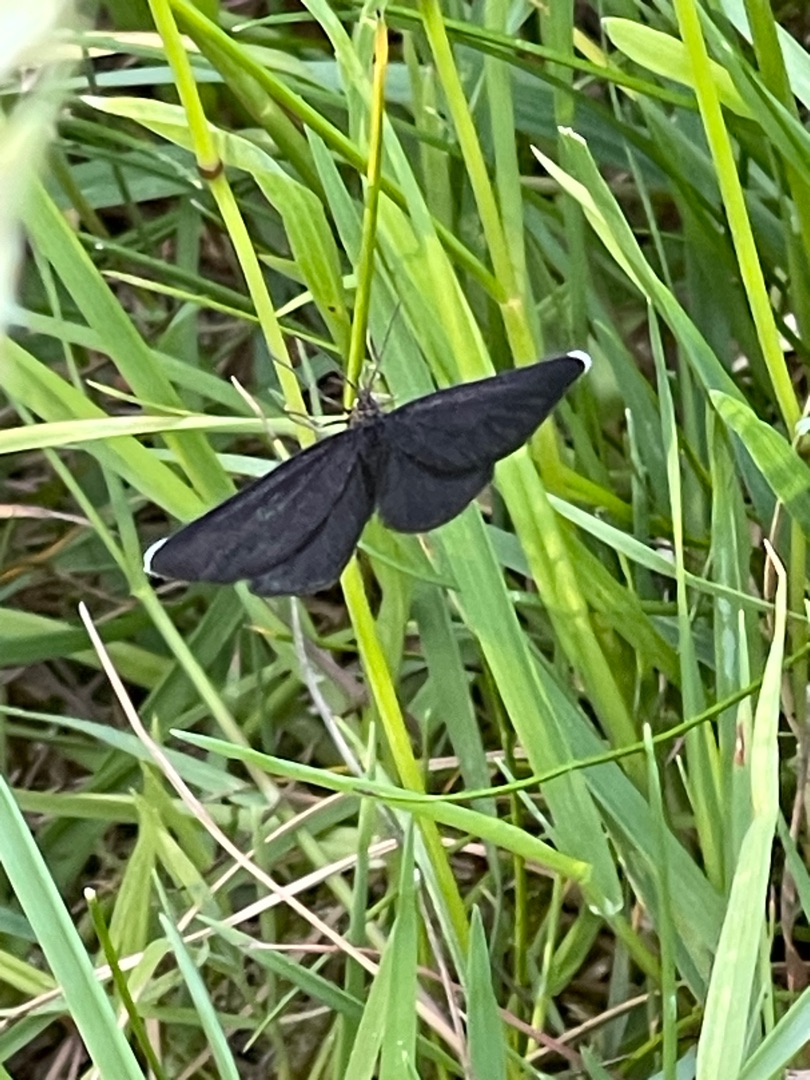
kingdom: Animalia
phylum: Arthropoda
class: Insecta
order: Lepidoptera
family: Geometridae
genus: Odezia
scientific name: Odezia atrata
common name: Sort måler
